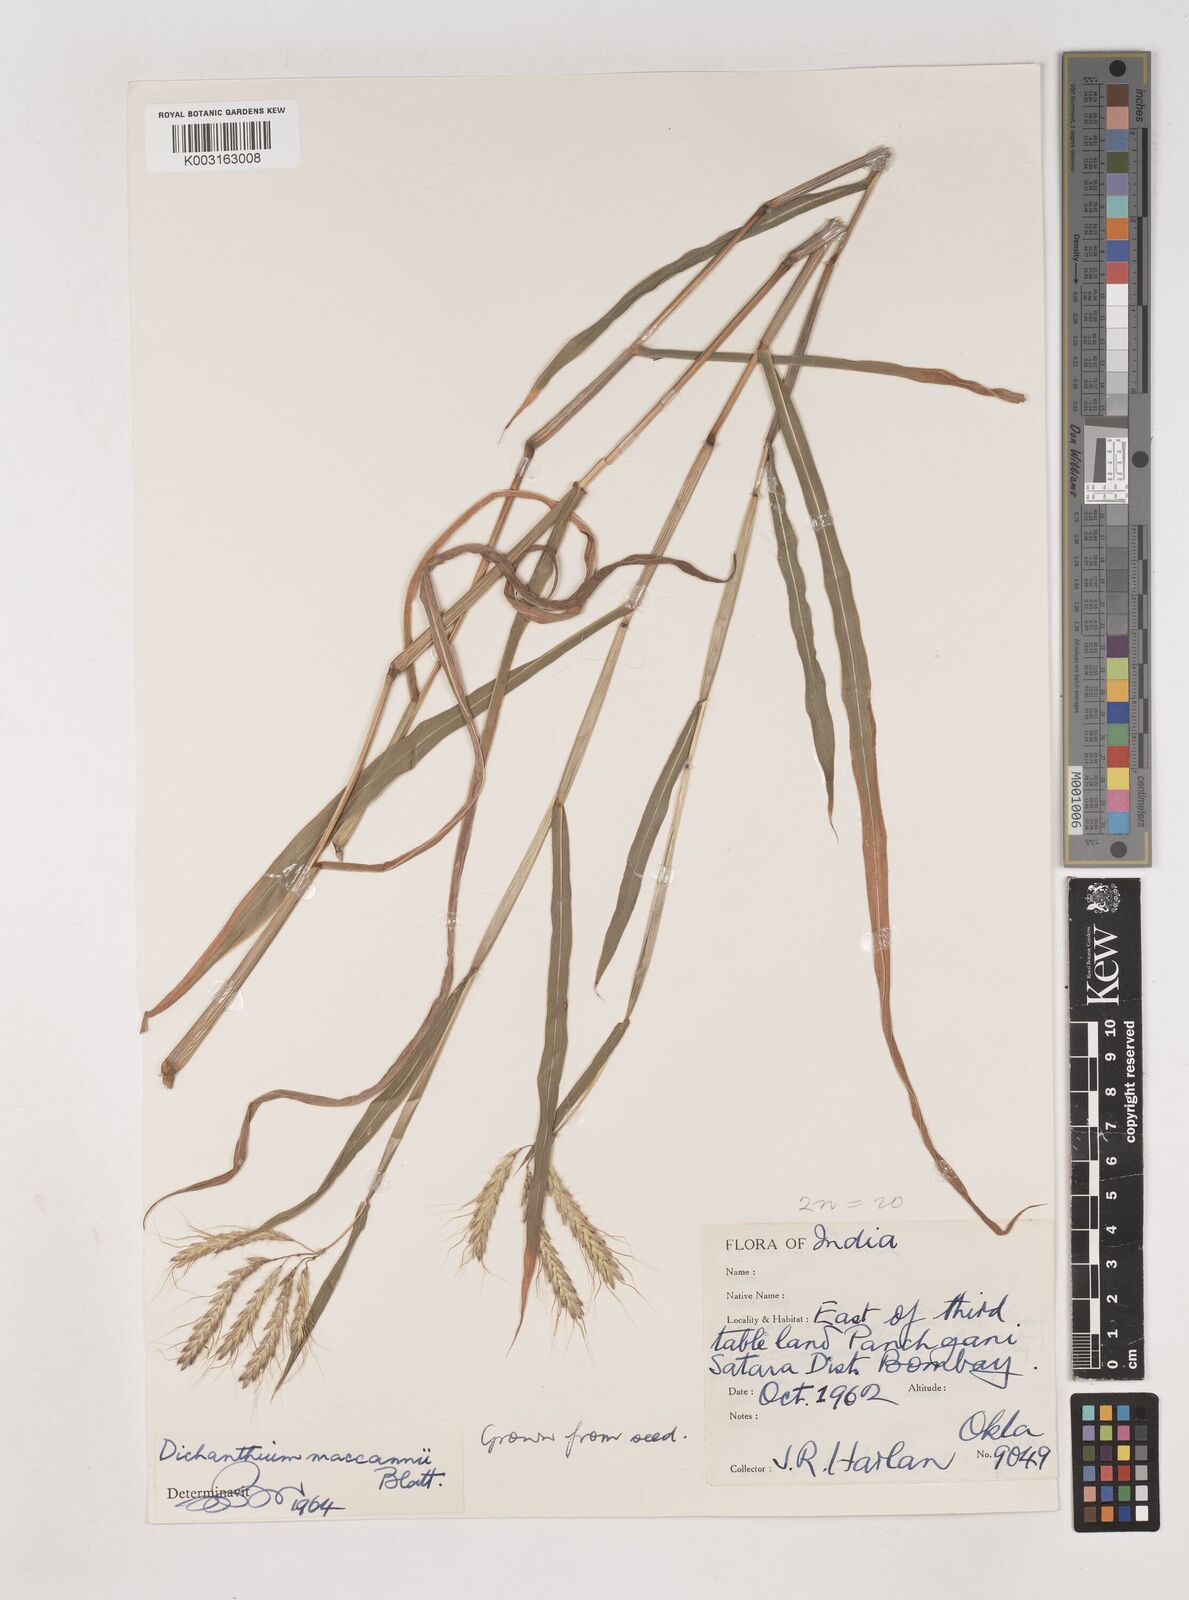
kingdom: Plantae
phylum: Tracheophyta
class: Liliopsida
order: Poales
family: Poaceae
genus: Dichanthium
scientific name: Dichanthium mccannii
